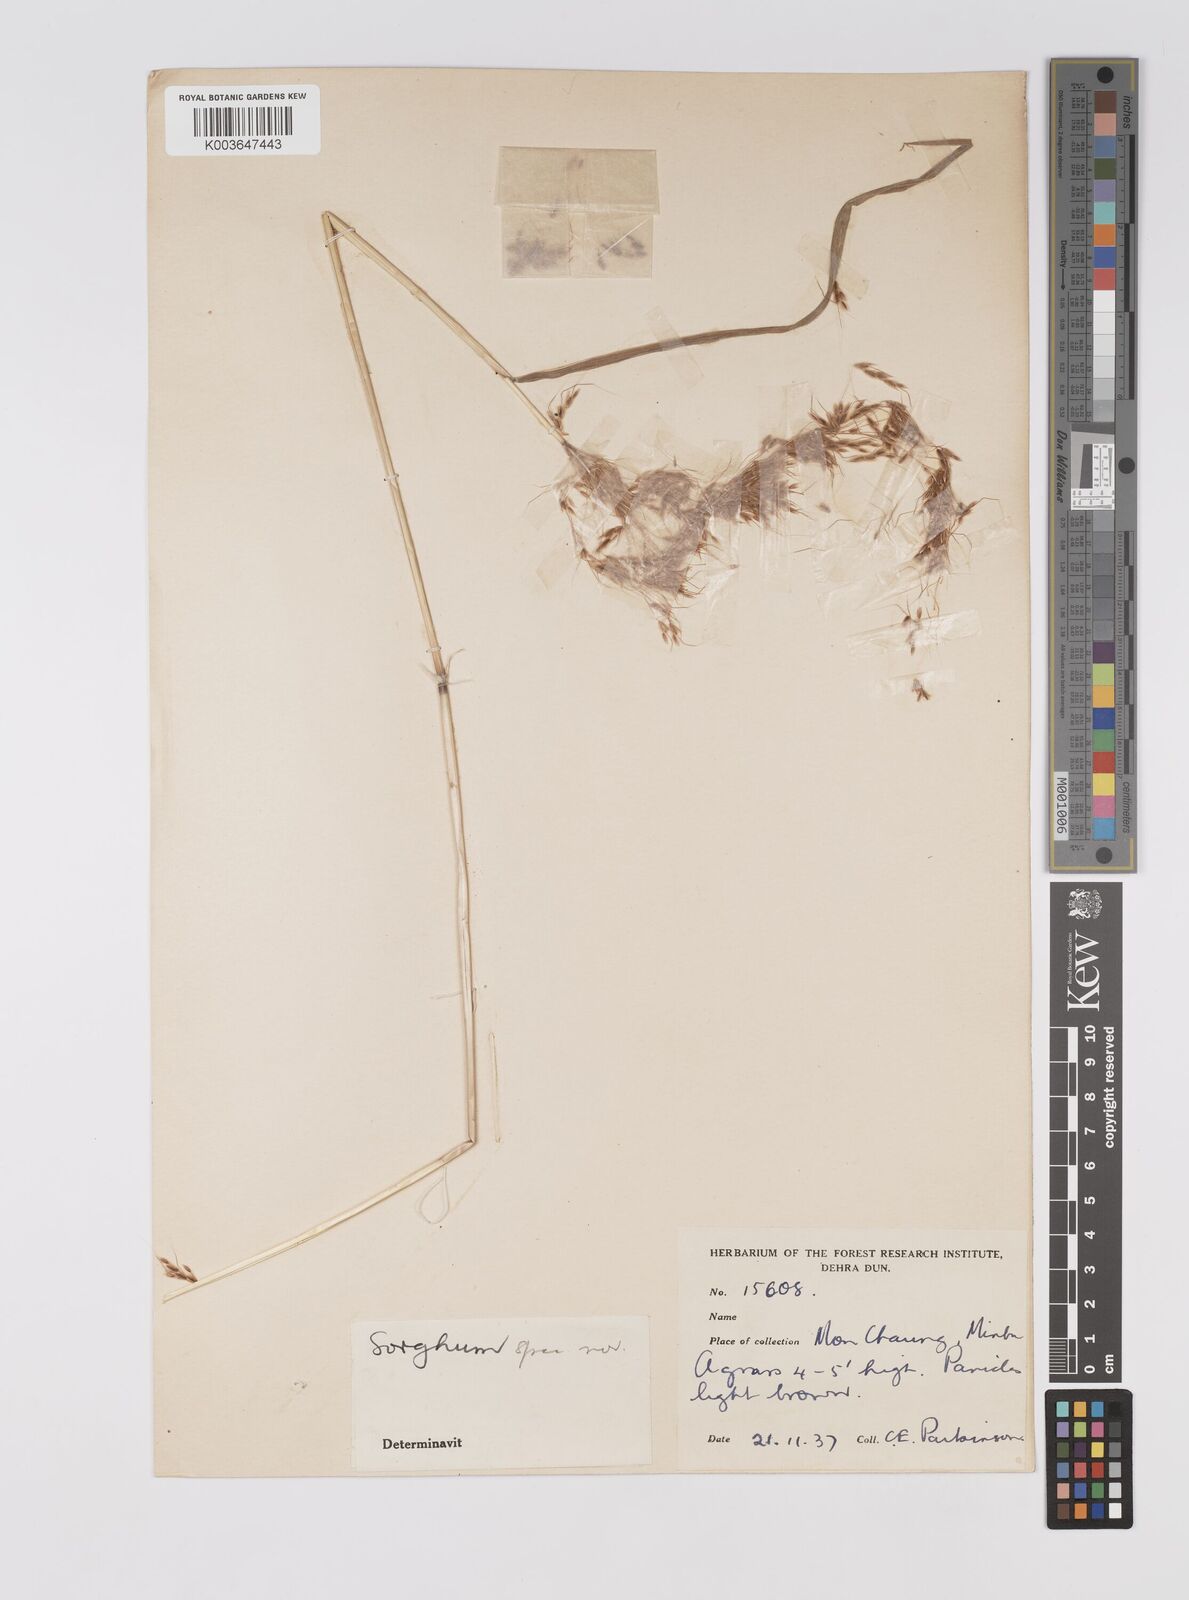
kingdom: Plantae
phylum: Tracheophyta
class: Liliopsida
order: Poales
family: Poaceae
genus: Sorghum
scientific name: Sorghum
